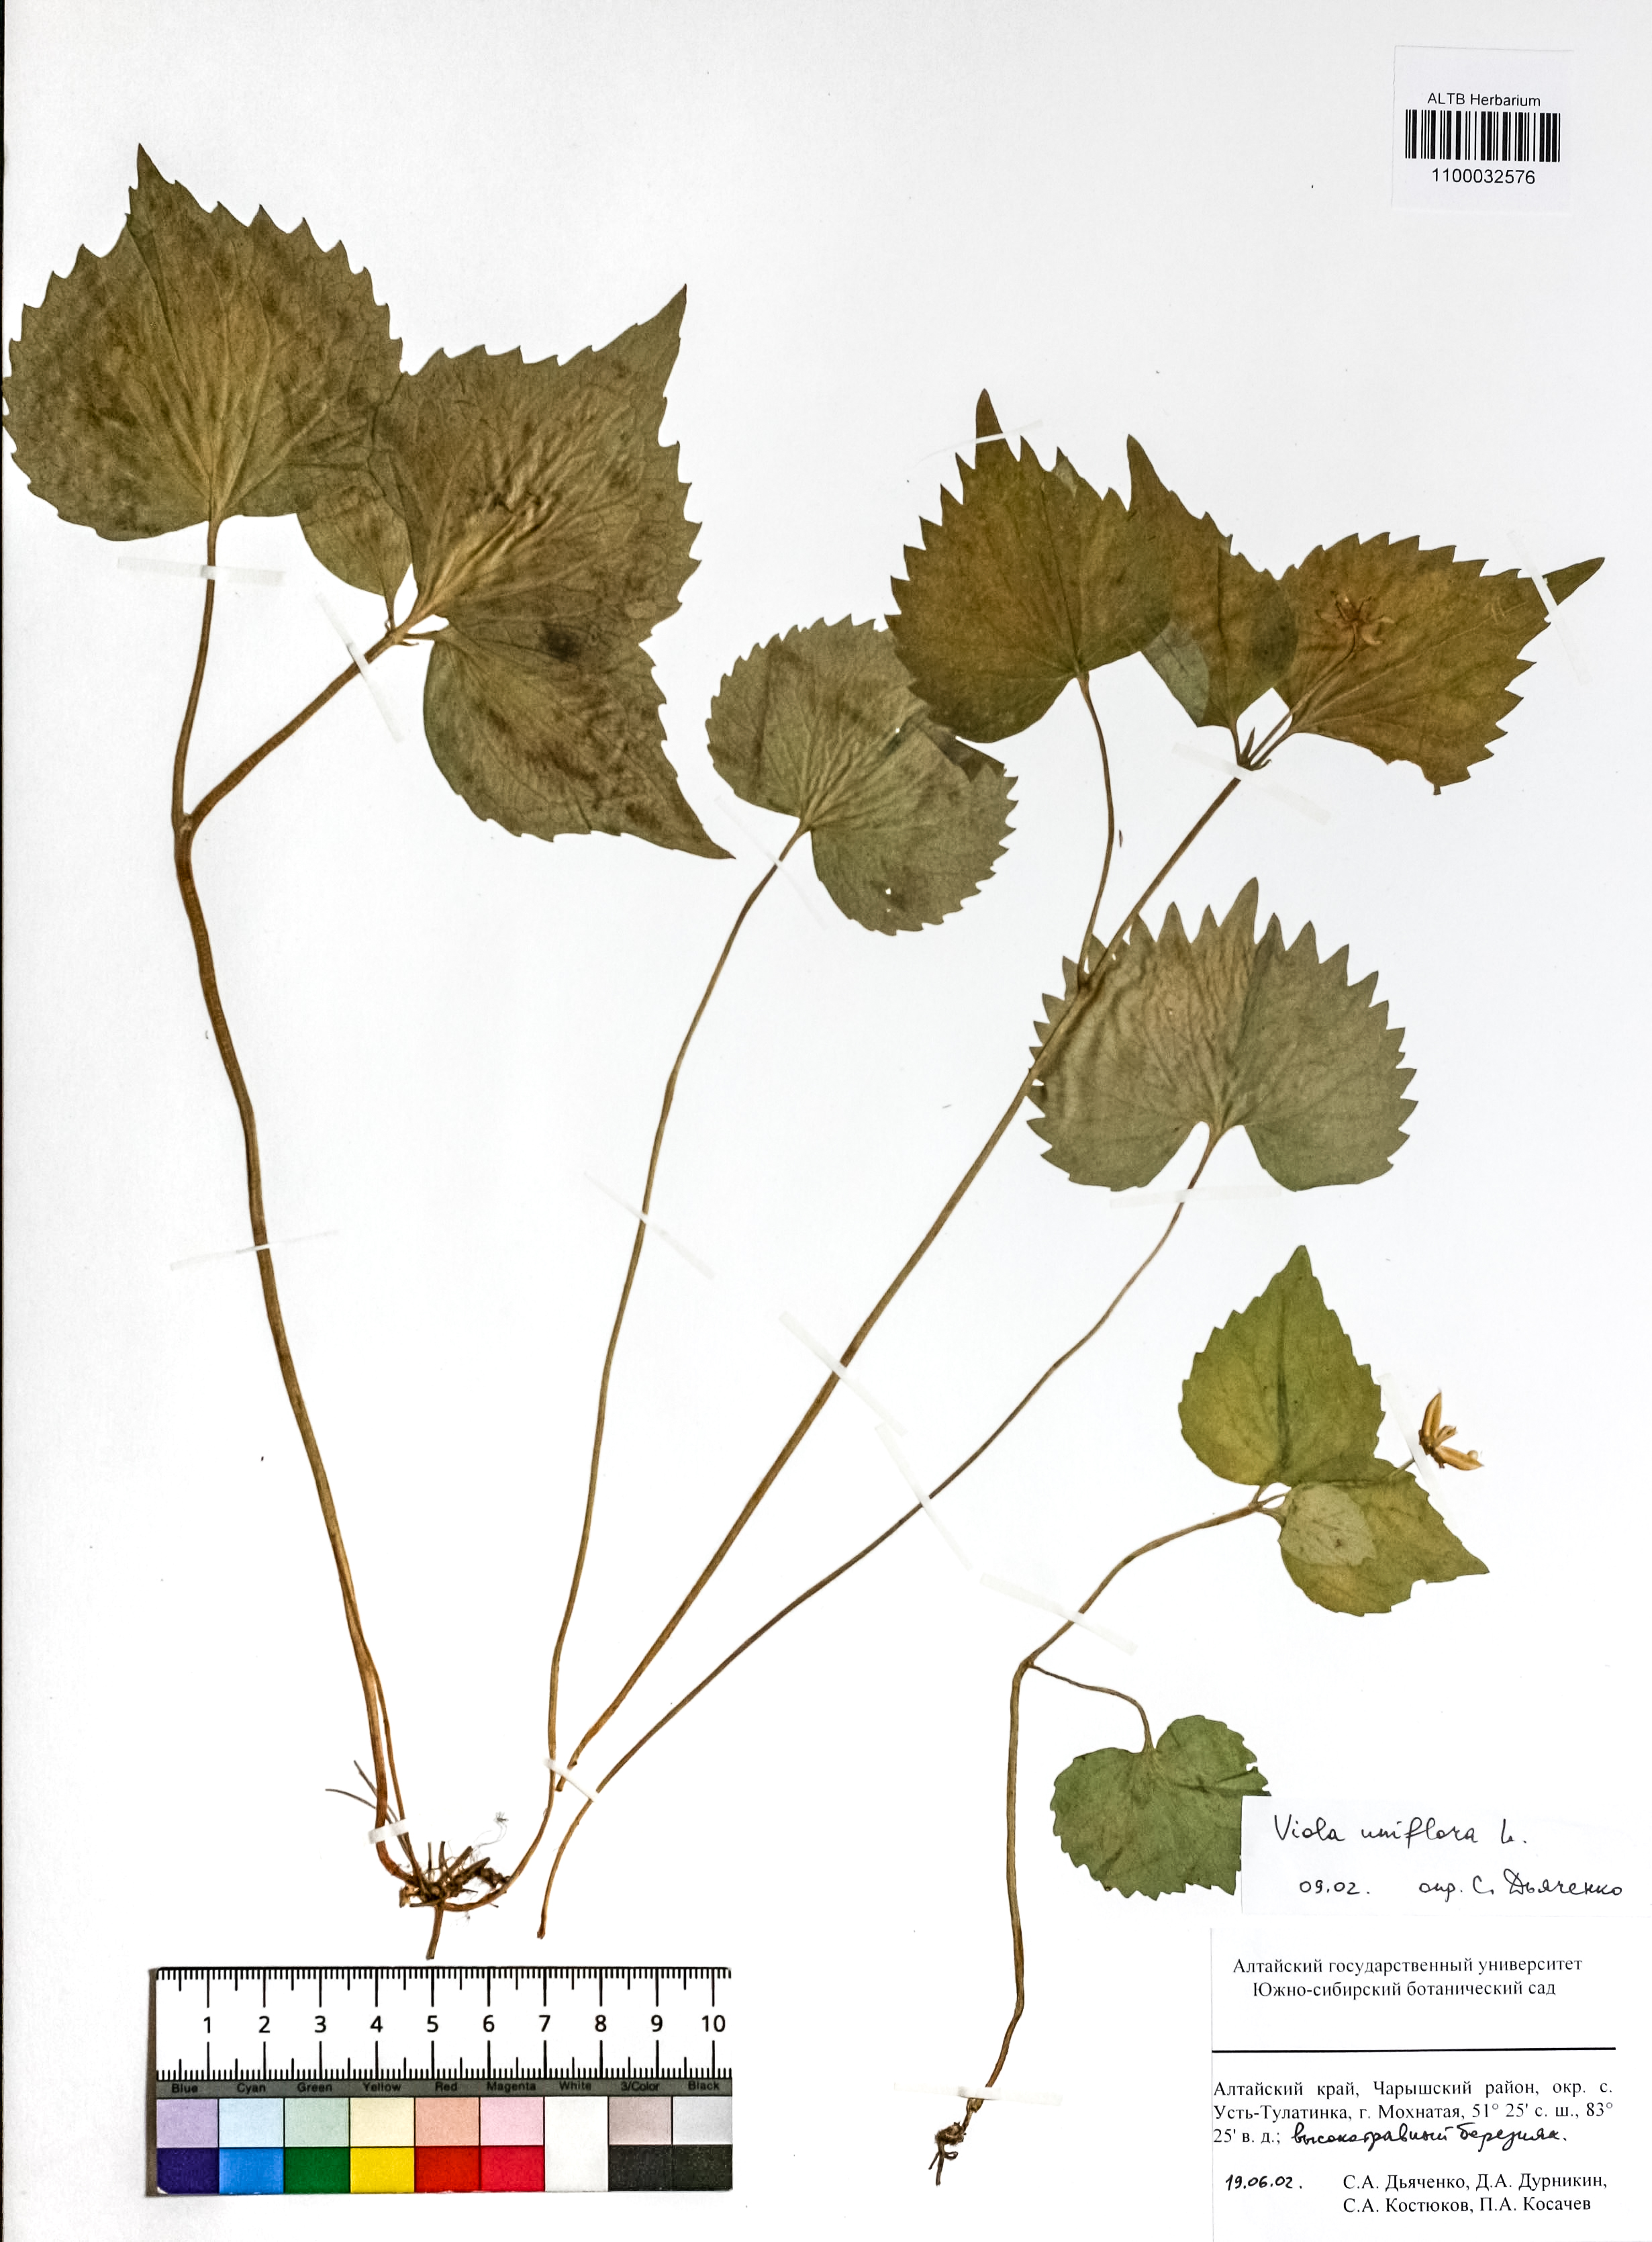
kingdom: Plantae
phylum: Tracheophyta
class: Magnoliopsida
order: Malpighiales
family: Violaceae
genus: Viola
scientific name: Viola uniflora
